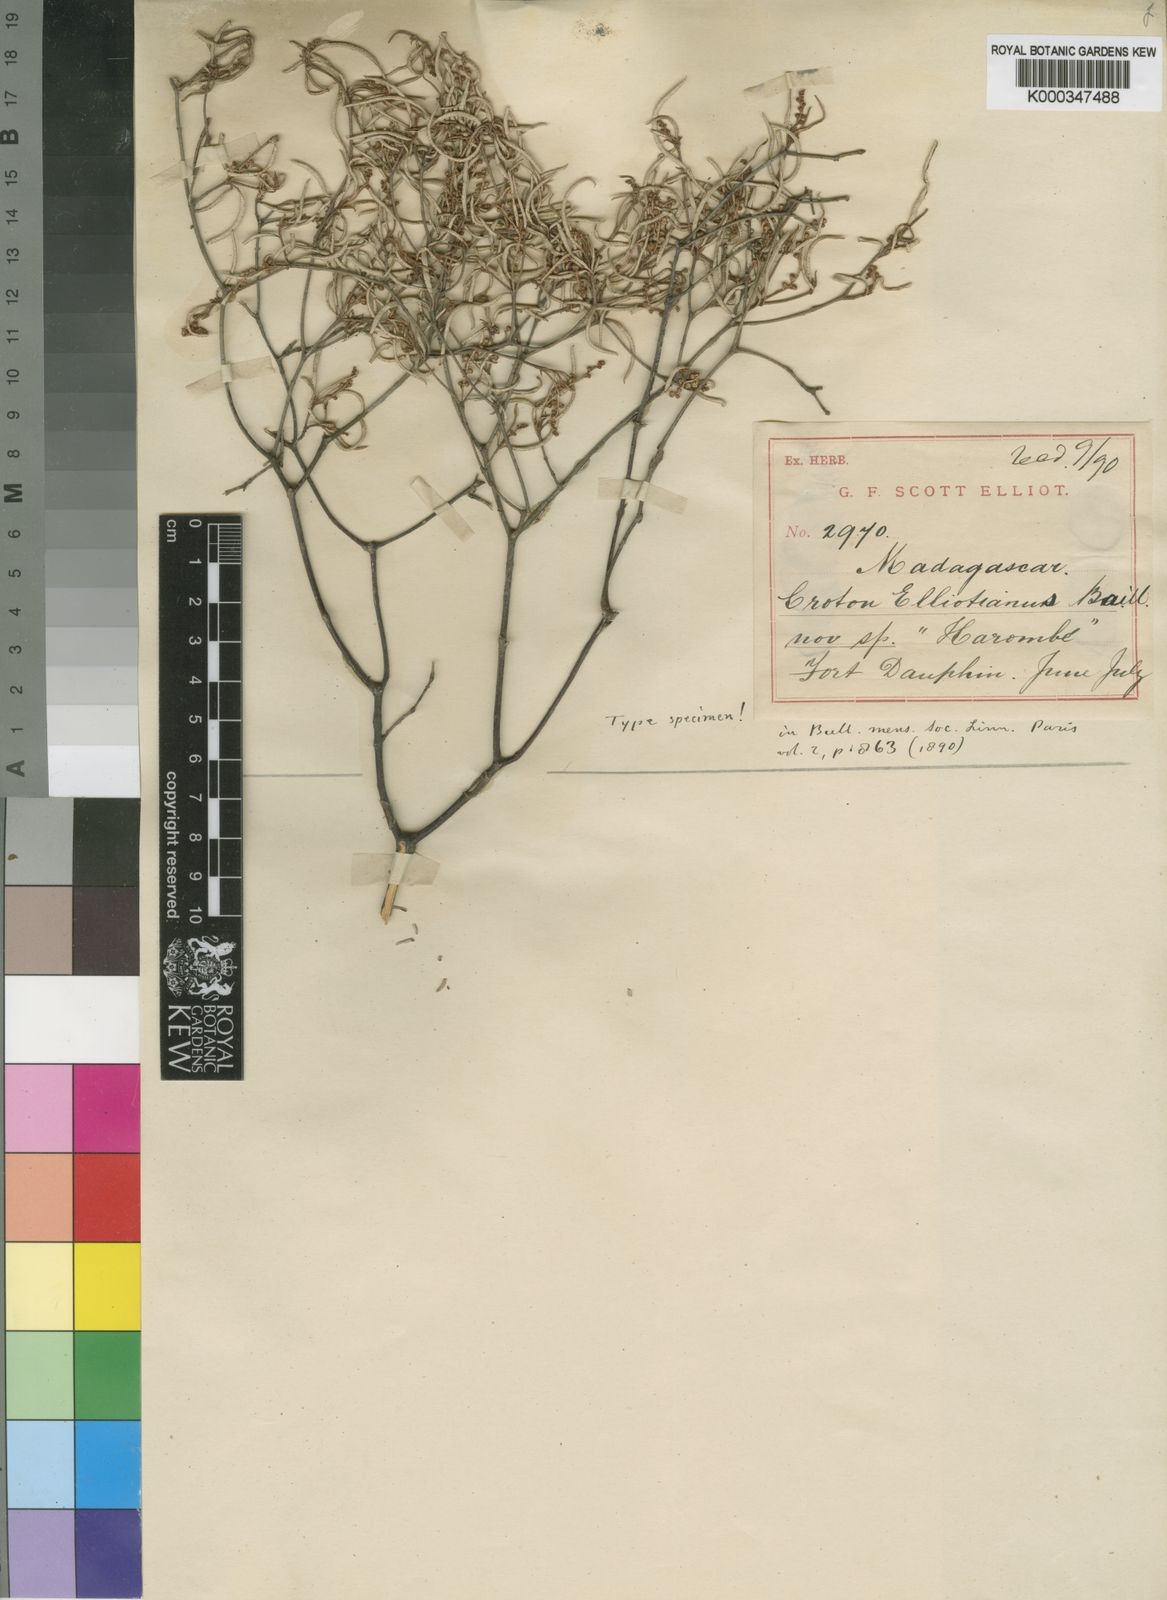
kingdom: Plantae
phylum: Tracheophyta
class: Magnoliopsida
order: Malpighiales
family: Euphorbiaceae
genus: Croton
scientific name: Croton elliotianus
